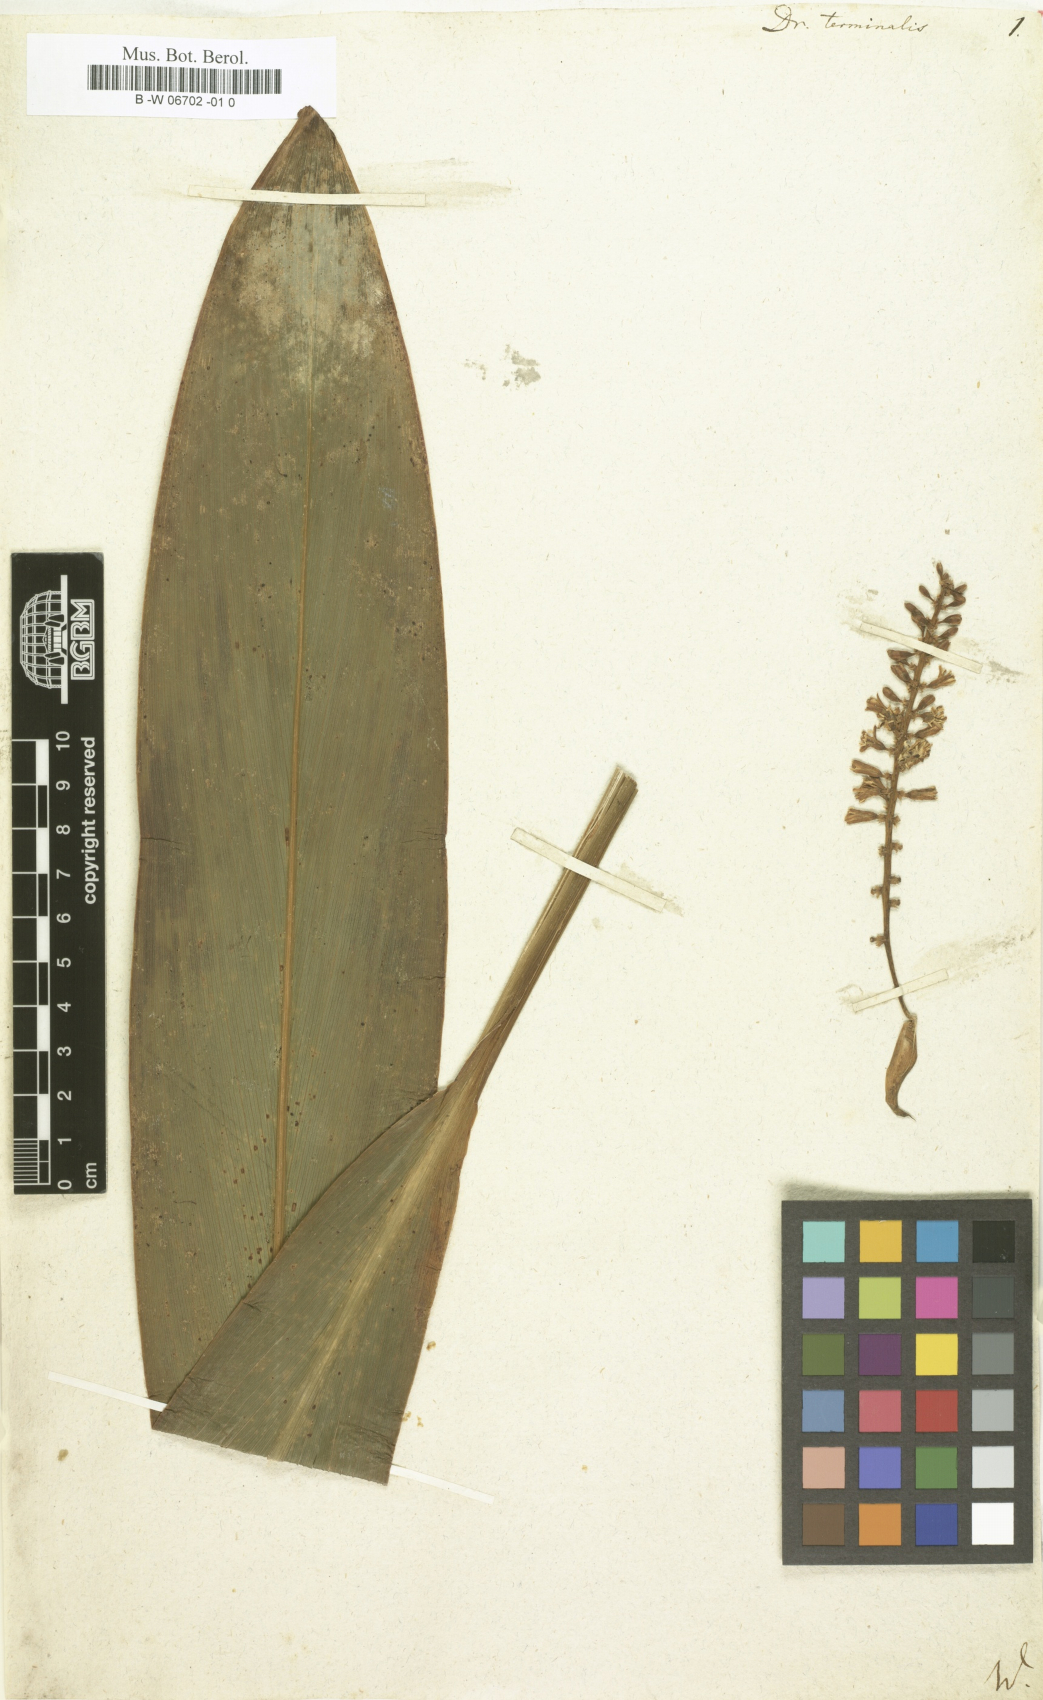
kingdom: Plantae
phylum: Tracheophyta
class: Liliopsida
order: Asparagales
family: Asparagaceae
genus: Dracaena
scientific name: Dracaena terminalis
